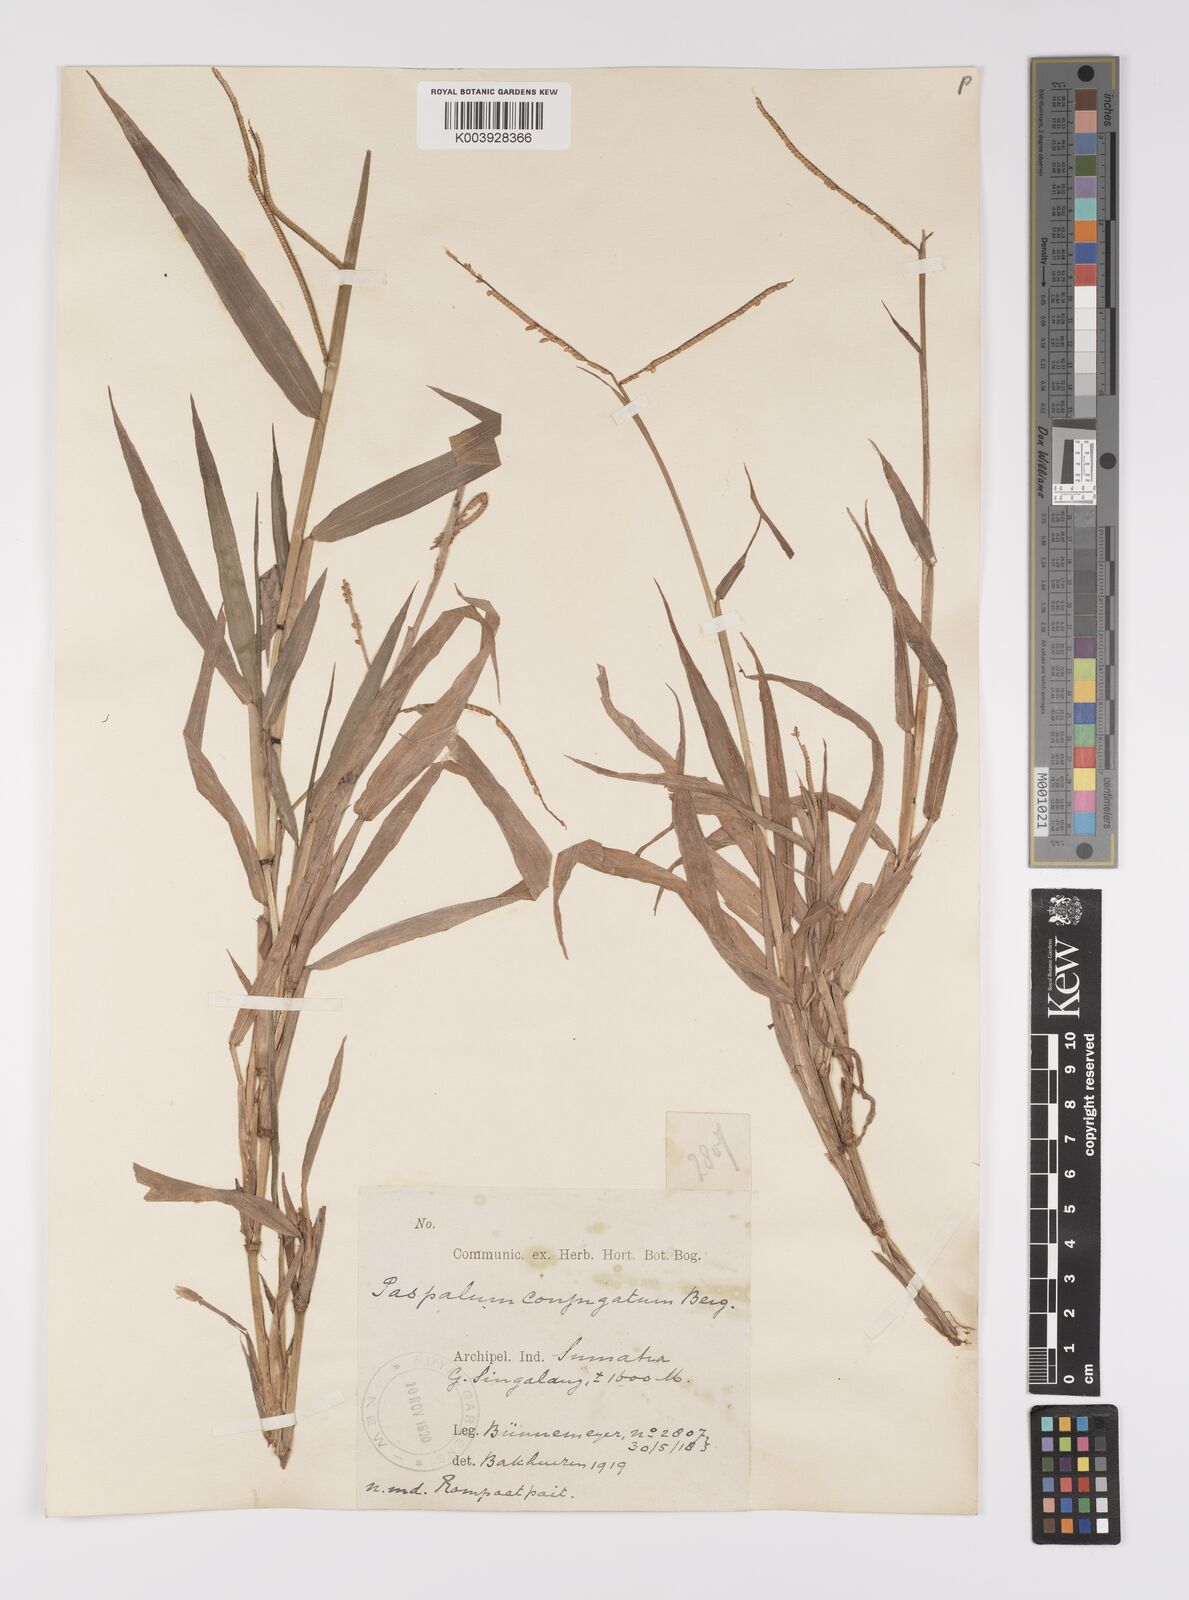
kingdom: Plantae
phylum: Tracheophyta
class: Liliopsida
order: Poales
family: Poaceae
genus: Paspalum
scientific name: Paspalum conjugatum
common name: Hilograss
